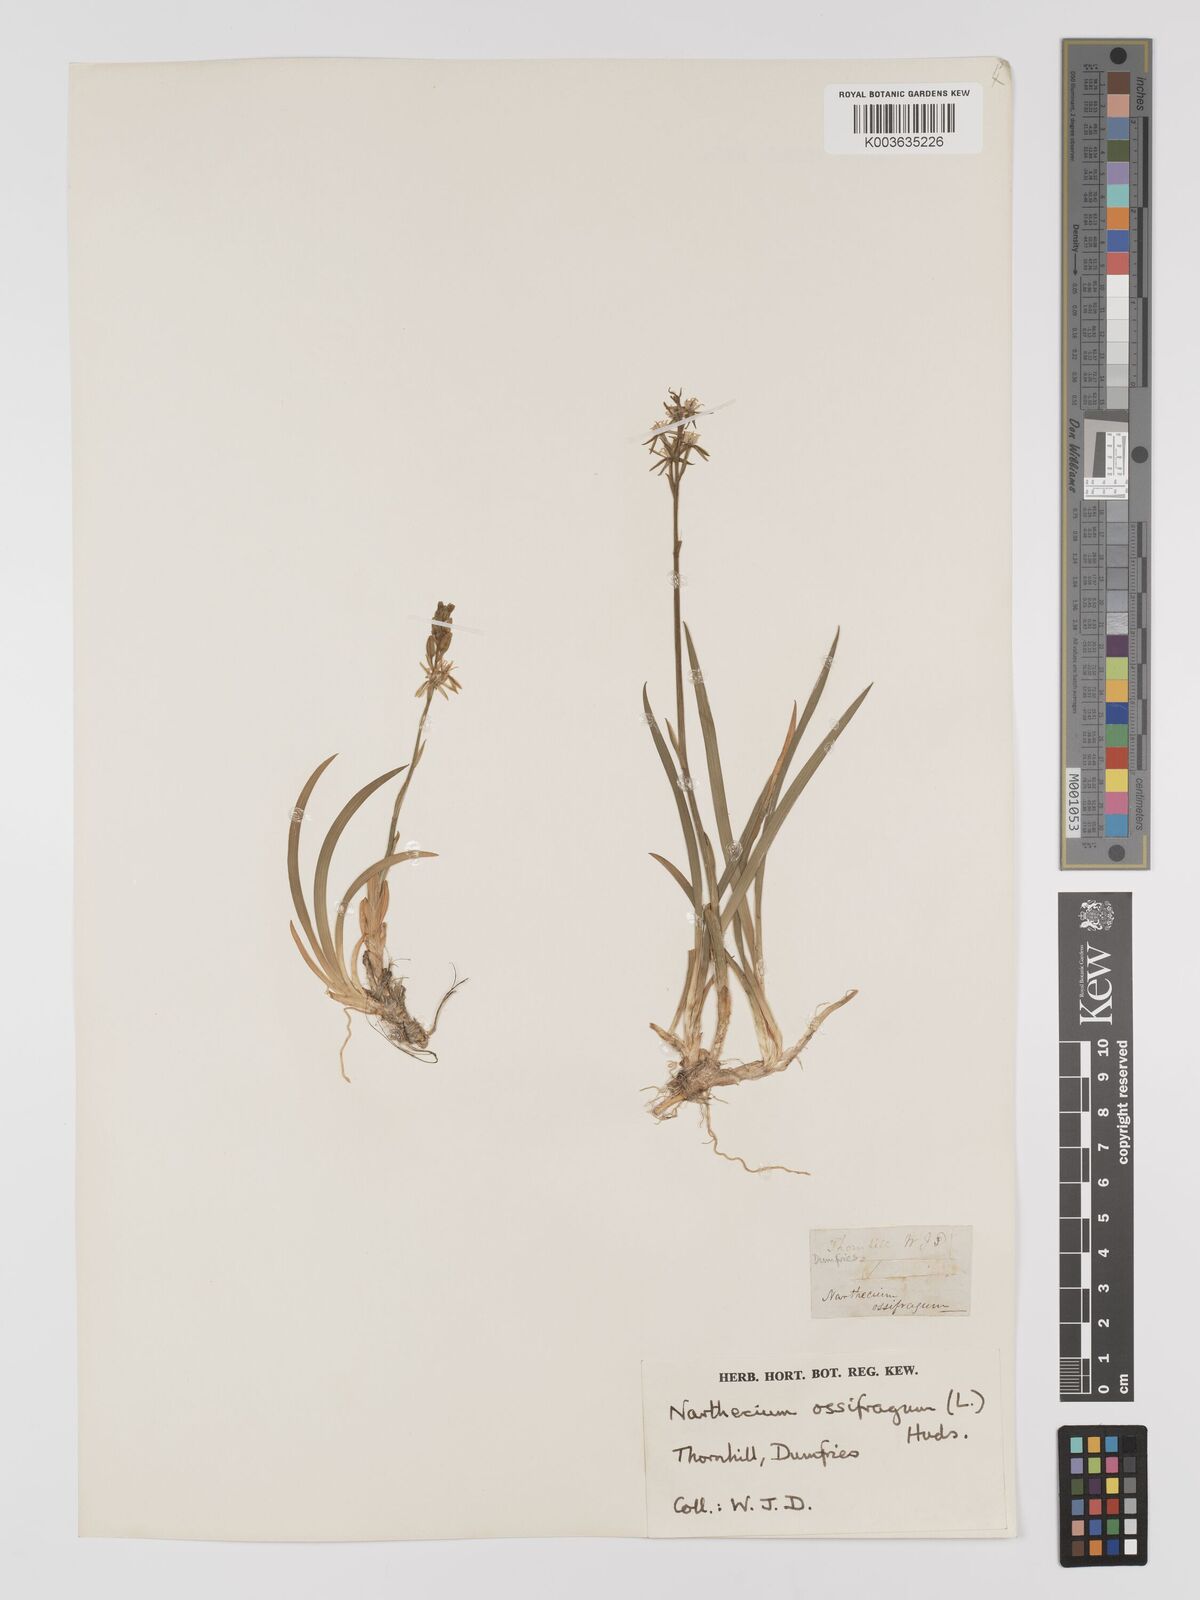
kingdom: Plantae
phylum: Tracheophyta
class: Liliopsida
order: Dioscoreales
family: Nartheciaceae
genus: Narthecium
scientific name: Narthecium ossifragum
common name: Bog asphodel
